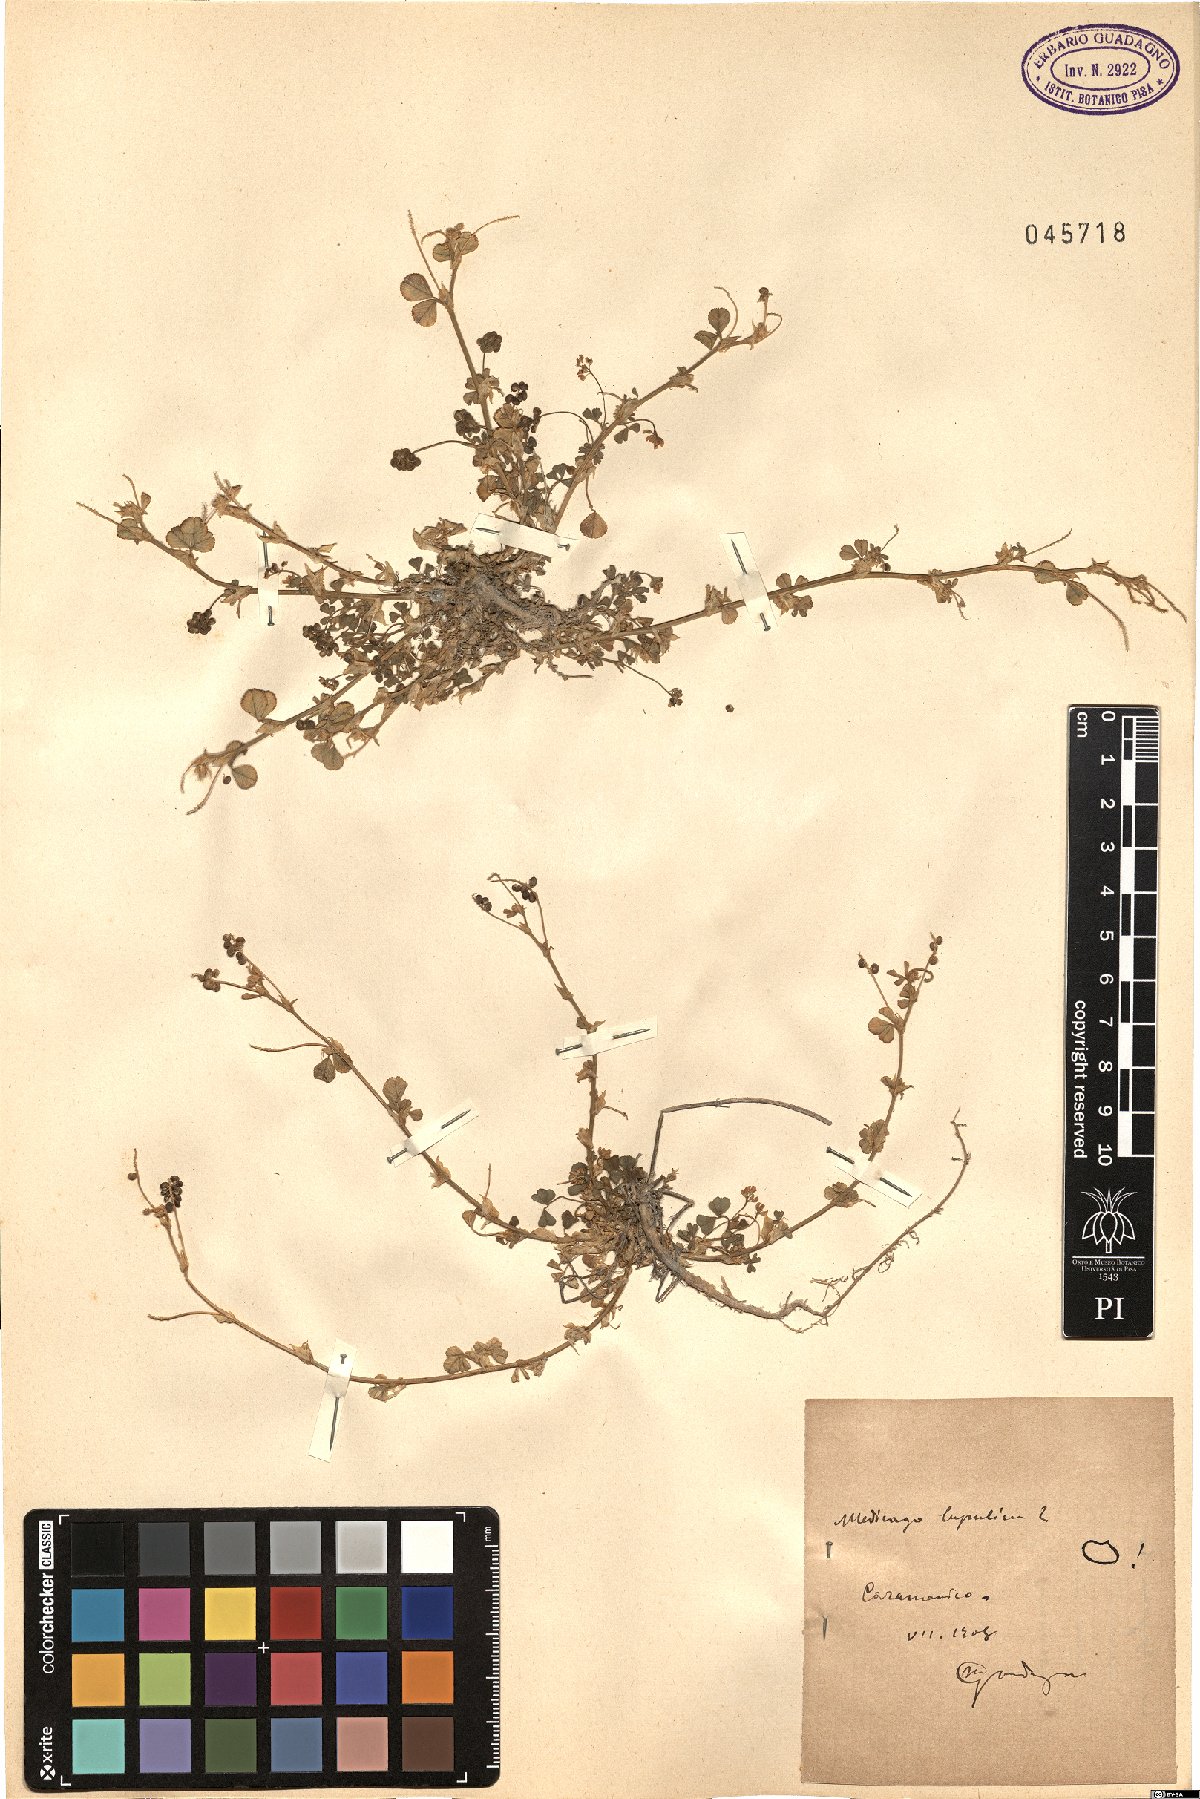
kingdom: Plantae
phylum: Tracheophyta
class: Magnoliopsida
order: Fabales
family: Fabaceae
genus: Medicago
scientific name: Medicago lupulina
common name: Black medick
